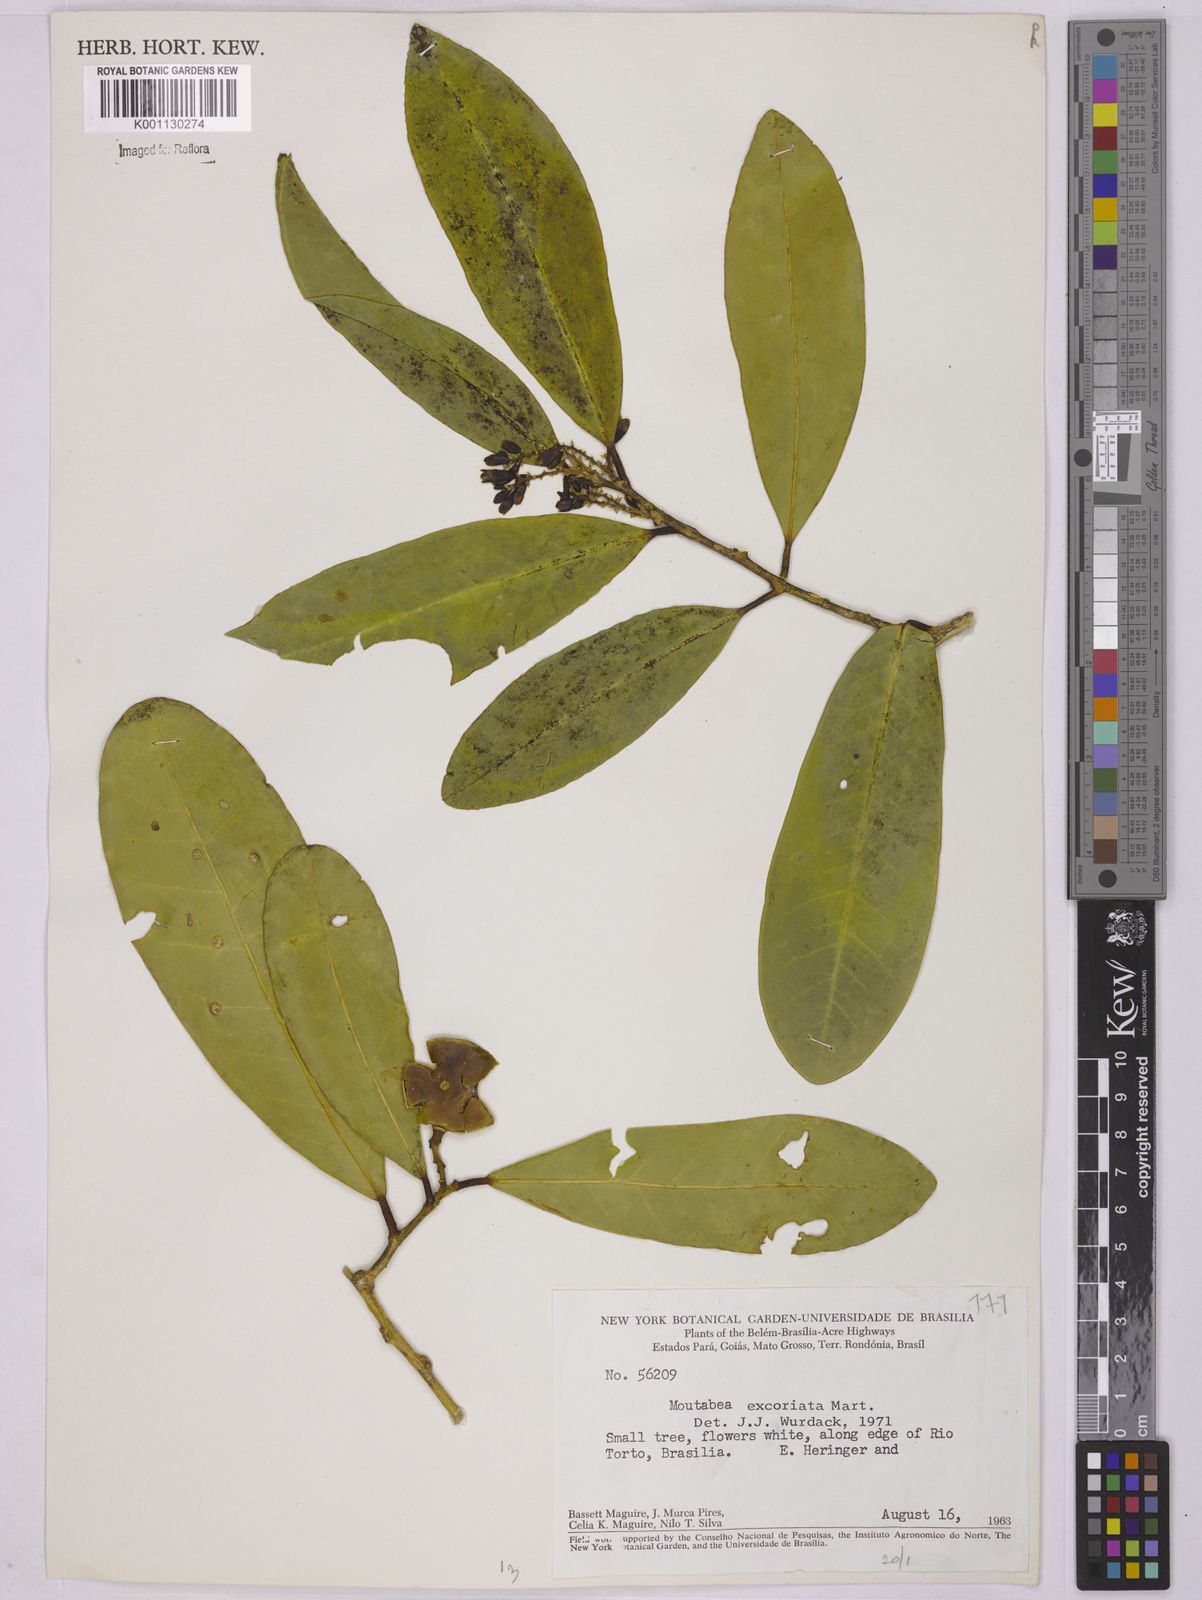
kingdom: Plantae
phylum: Tracheophyta
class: Magnoliopsida
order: Fabales
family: Polygalaceae
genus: Moutabea
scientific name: Moutabea excoriata
